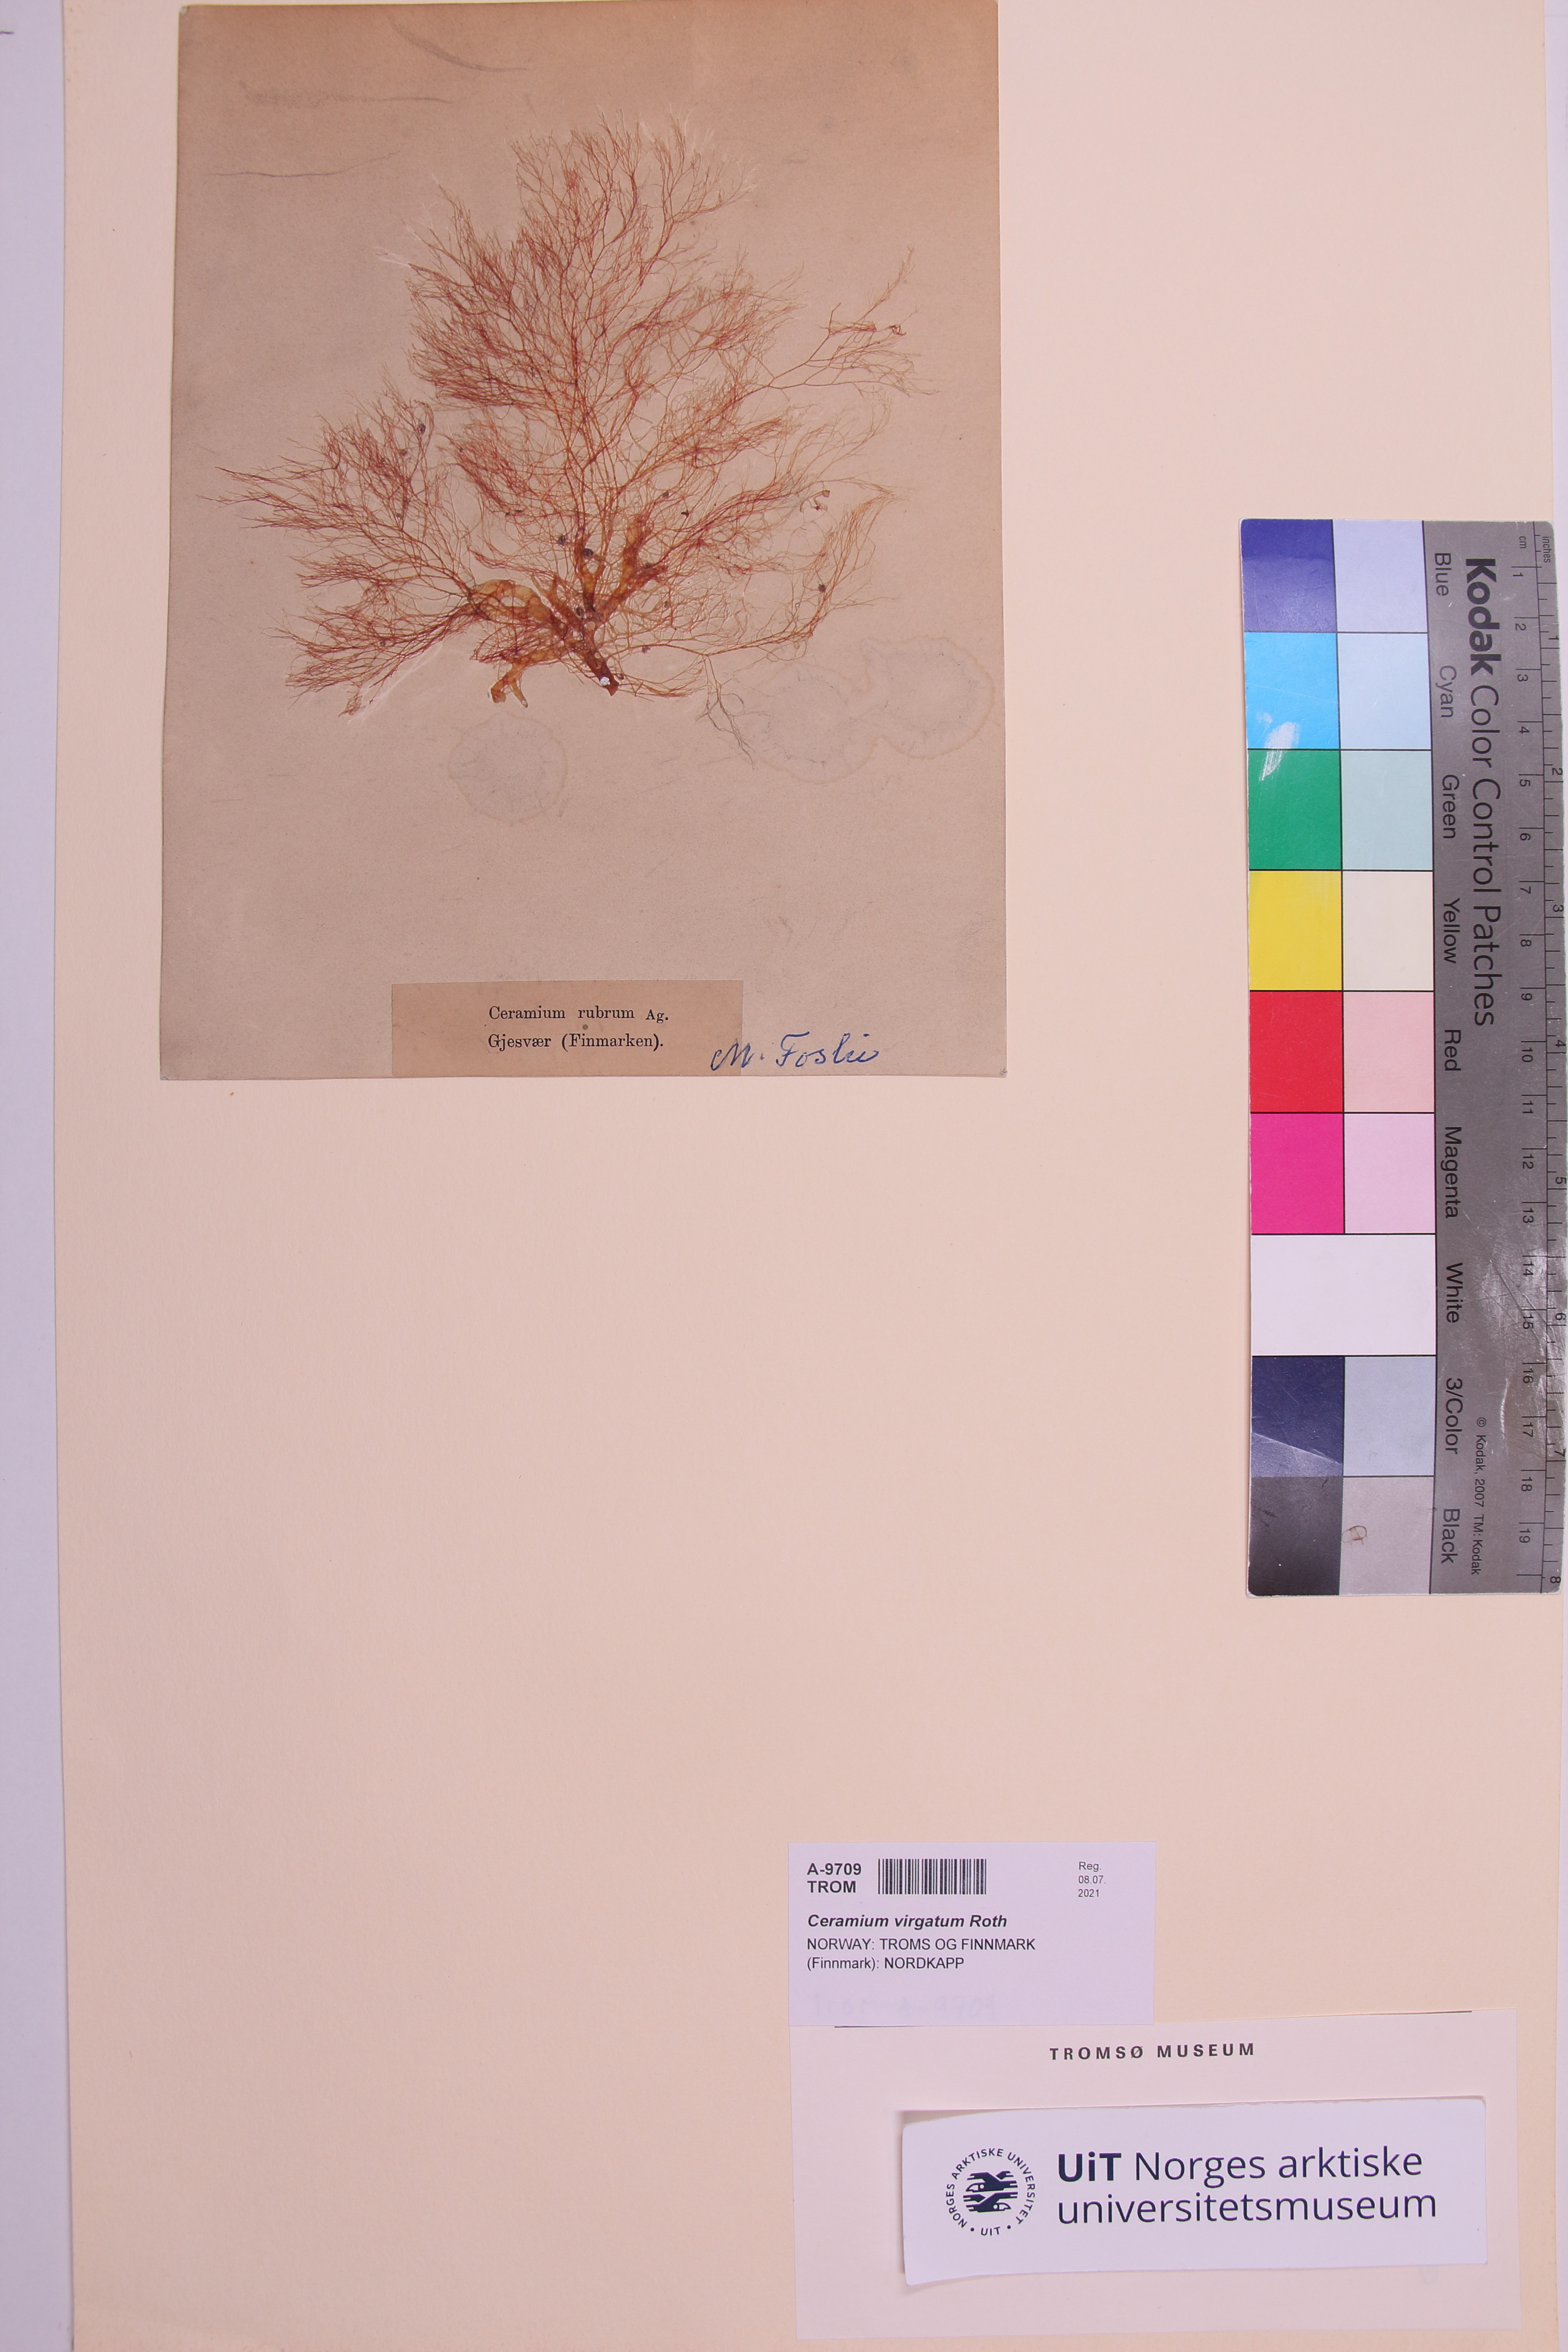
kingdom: Plantae
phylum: Rhodophyta
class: Florideophyceae
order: Ceramiales
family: Ceramiaceae
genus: Ceramium
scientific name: Ceramium virgatum
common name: Red hornweed
